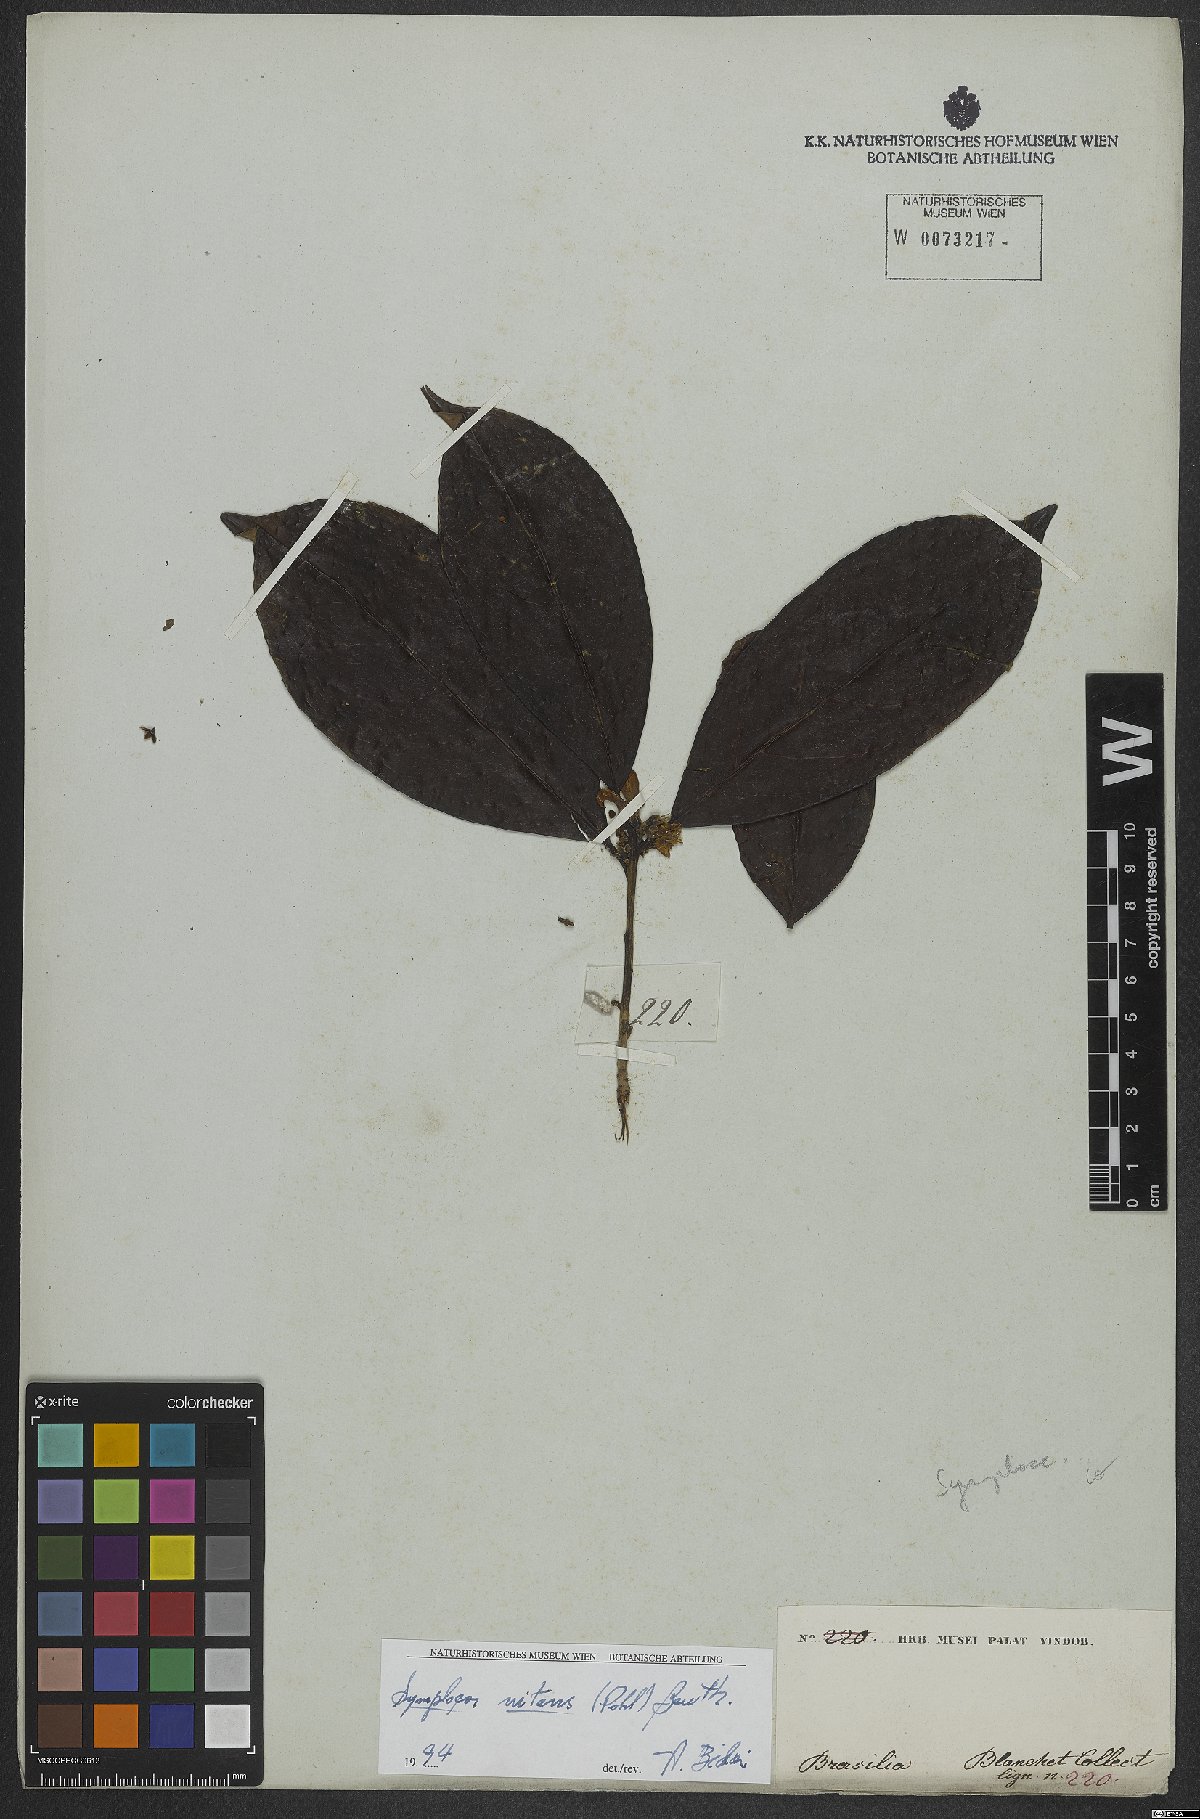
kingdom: Plantae
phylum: Tracheophyta
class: Magnoliopsida
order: Ericales
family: Symplocaceae
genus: Symplocos
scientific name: Symplocos nitens
